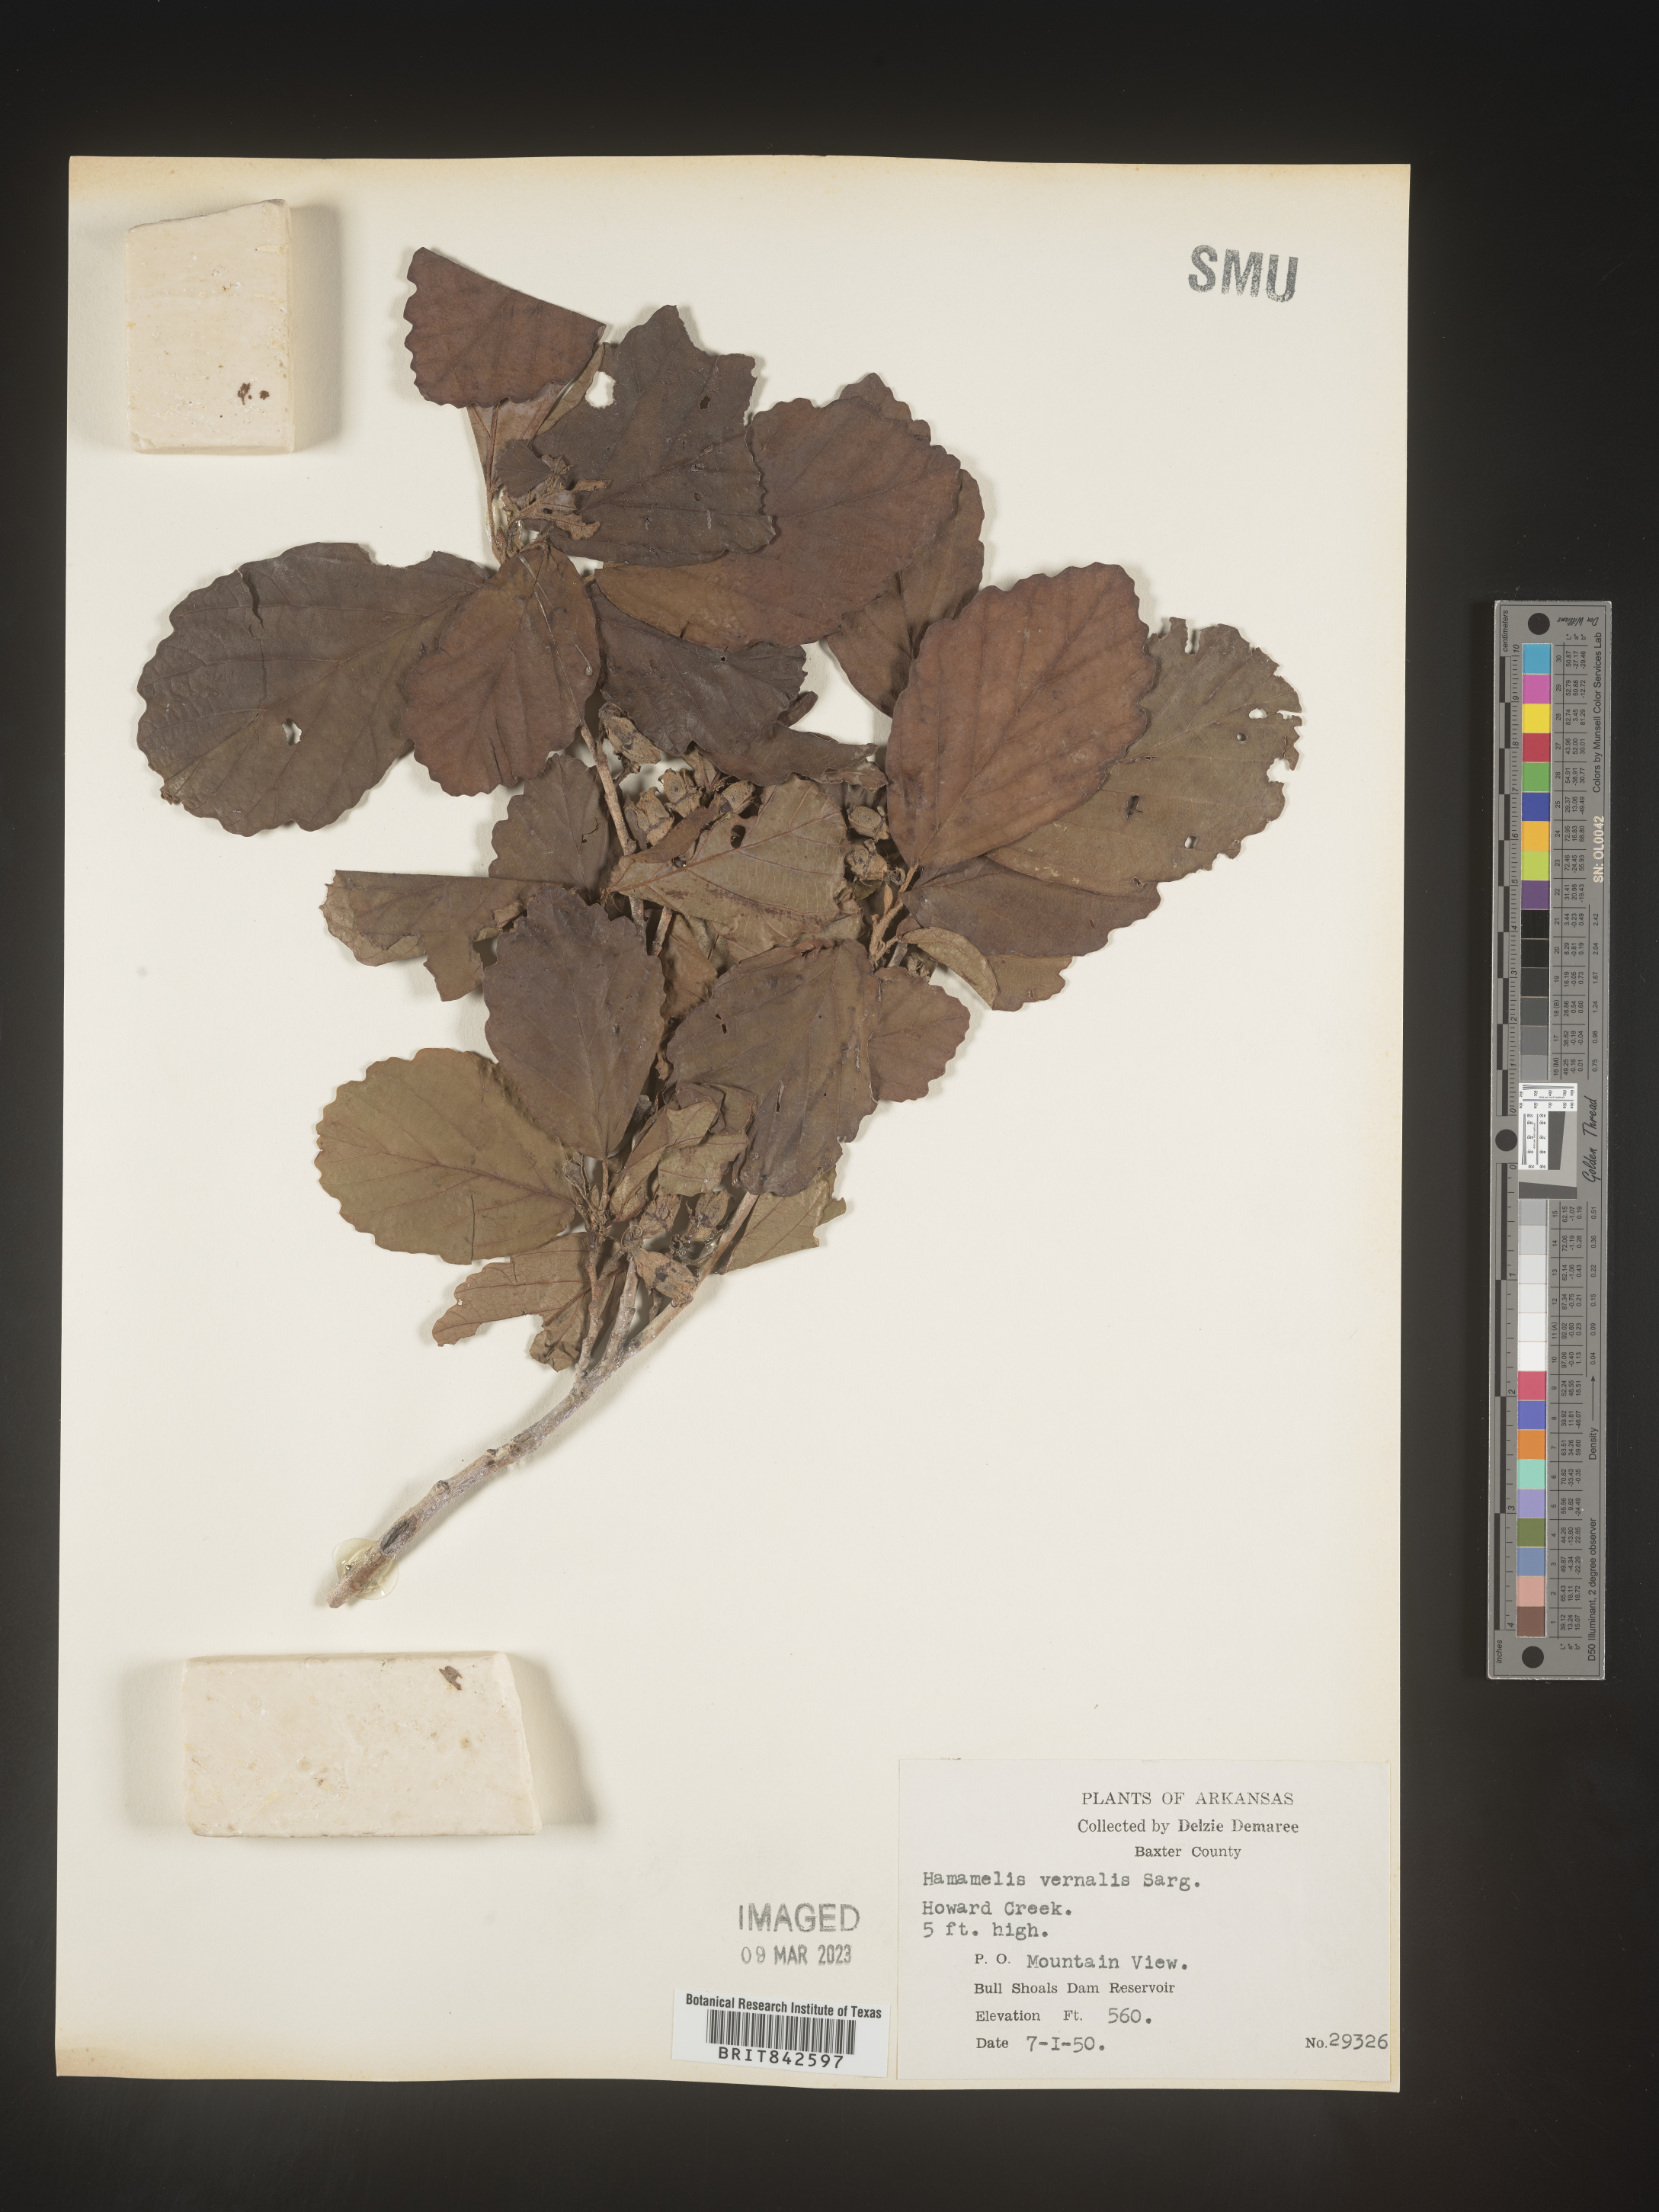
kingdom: Plantae
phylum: Tracheophyta
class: Magnoliopsida
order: Saxifragales
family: Hamamelidaceae
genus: Hamamelis
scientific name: Hamamelis vernalis
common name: Ozark witch-hazel
